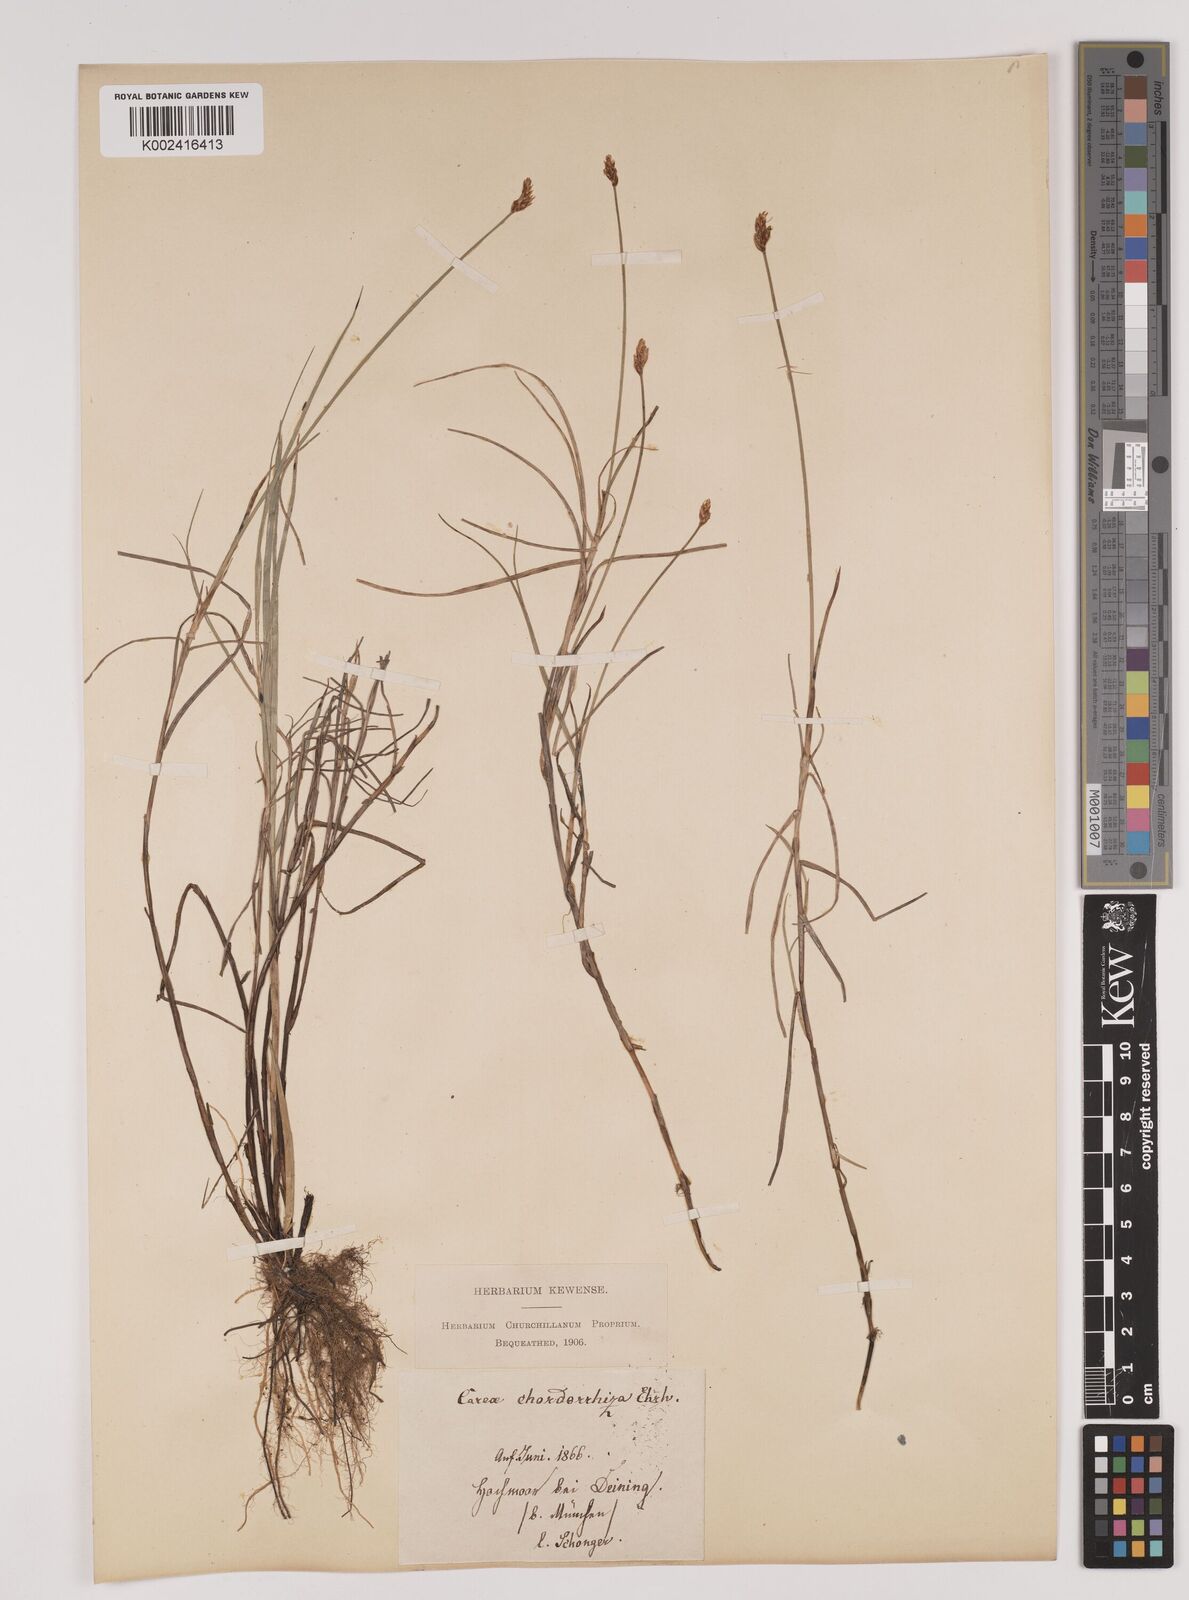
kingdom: Plantae
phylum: Tracheophyta
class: Liliopsida
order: Poales
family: Cyperaceae
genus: Carex
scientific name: Carex chordorrhiza
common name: String sedge
